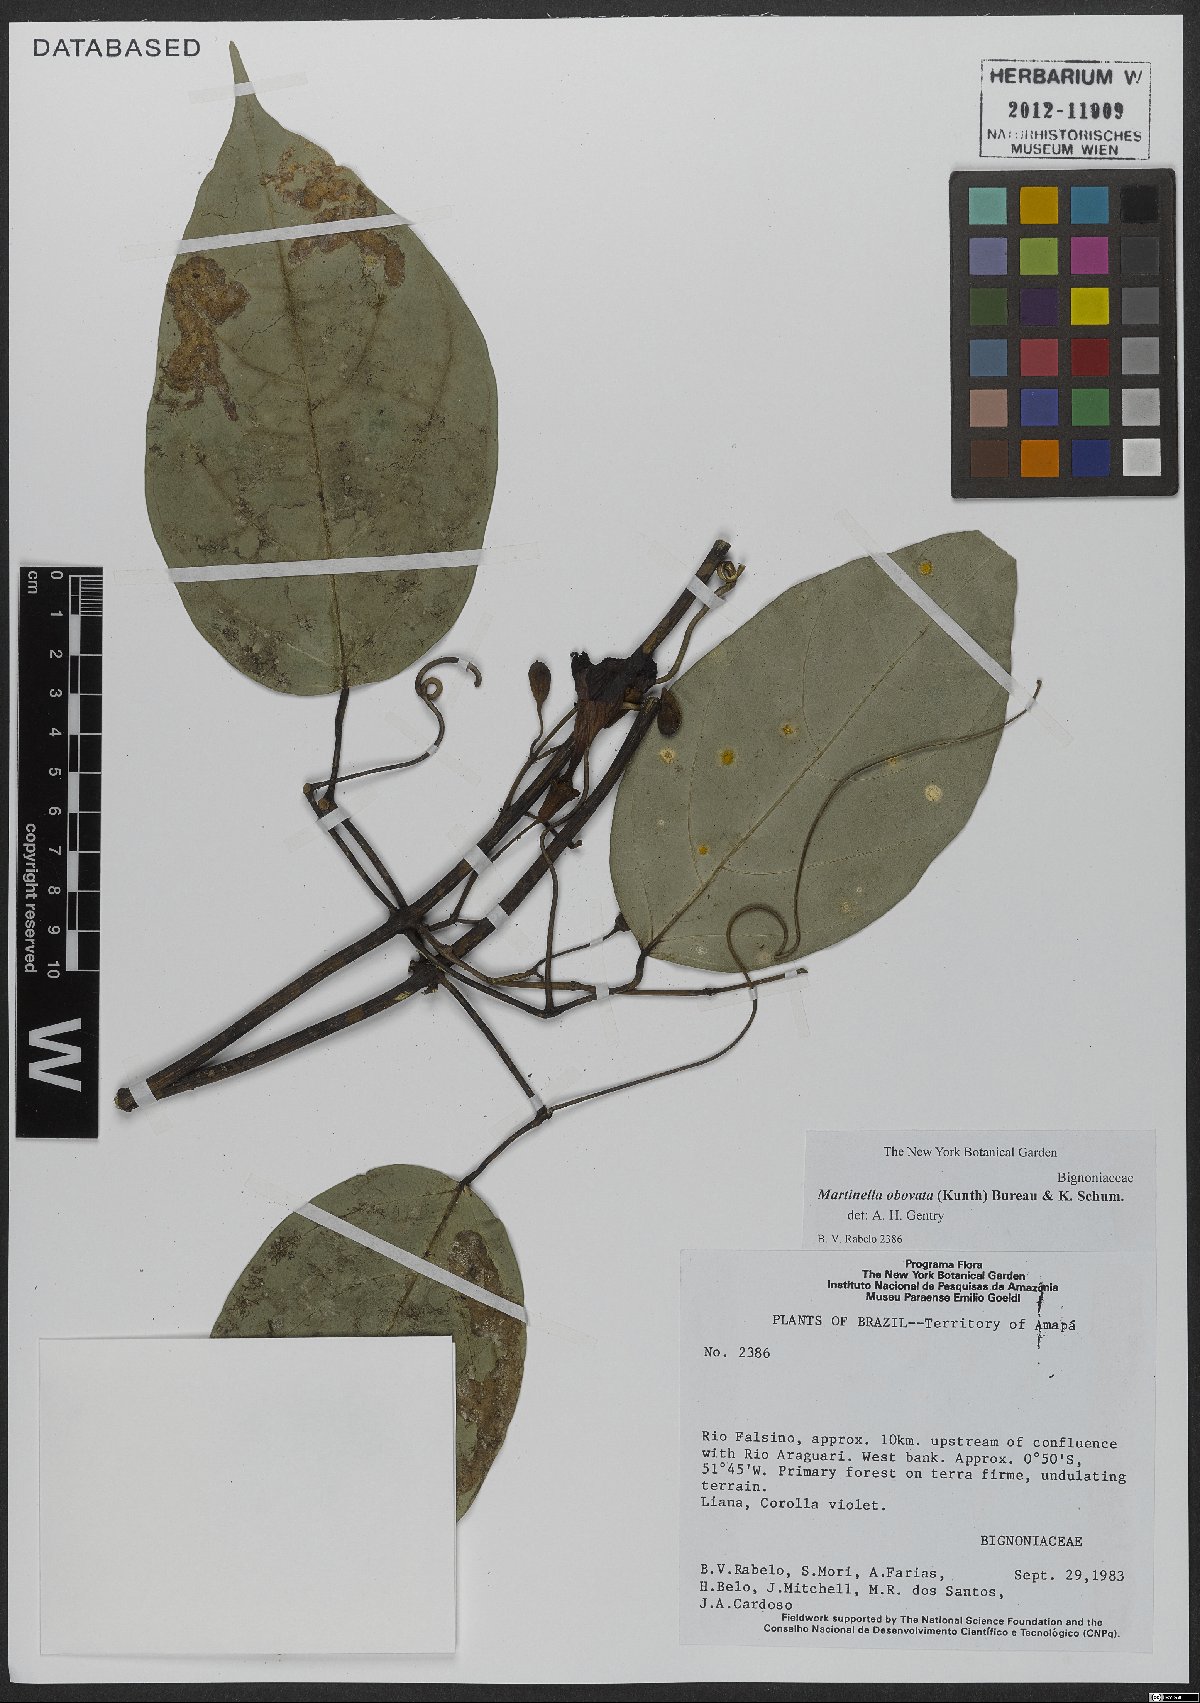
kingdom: Animalia
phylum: Arthropoda
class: Insecta
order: Coleoptera
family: Chrysomelidae
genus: Martinella
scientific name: Martinella obovata
